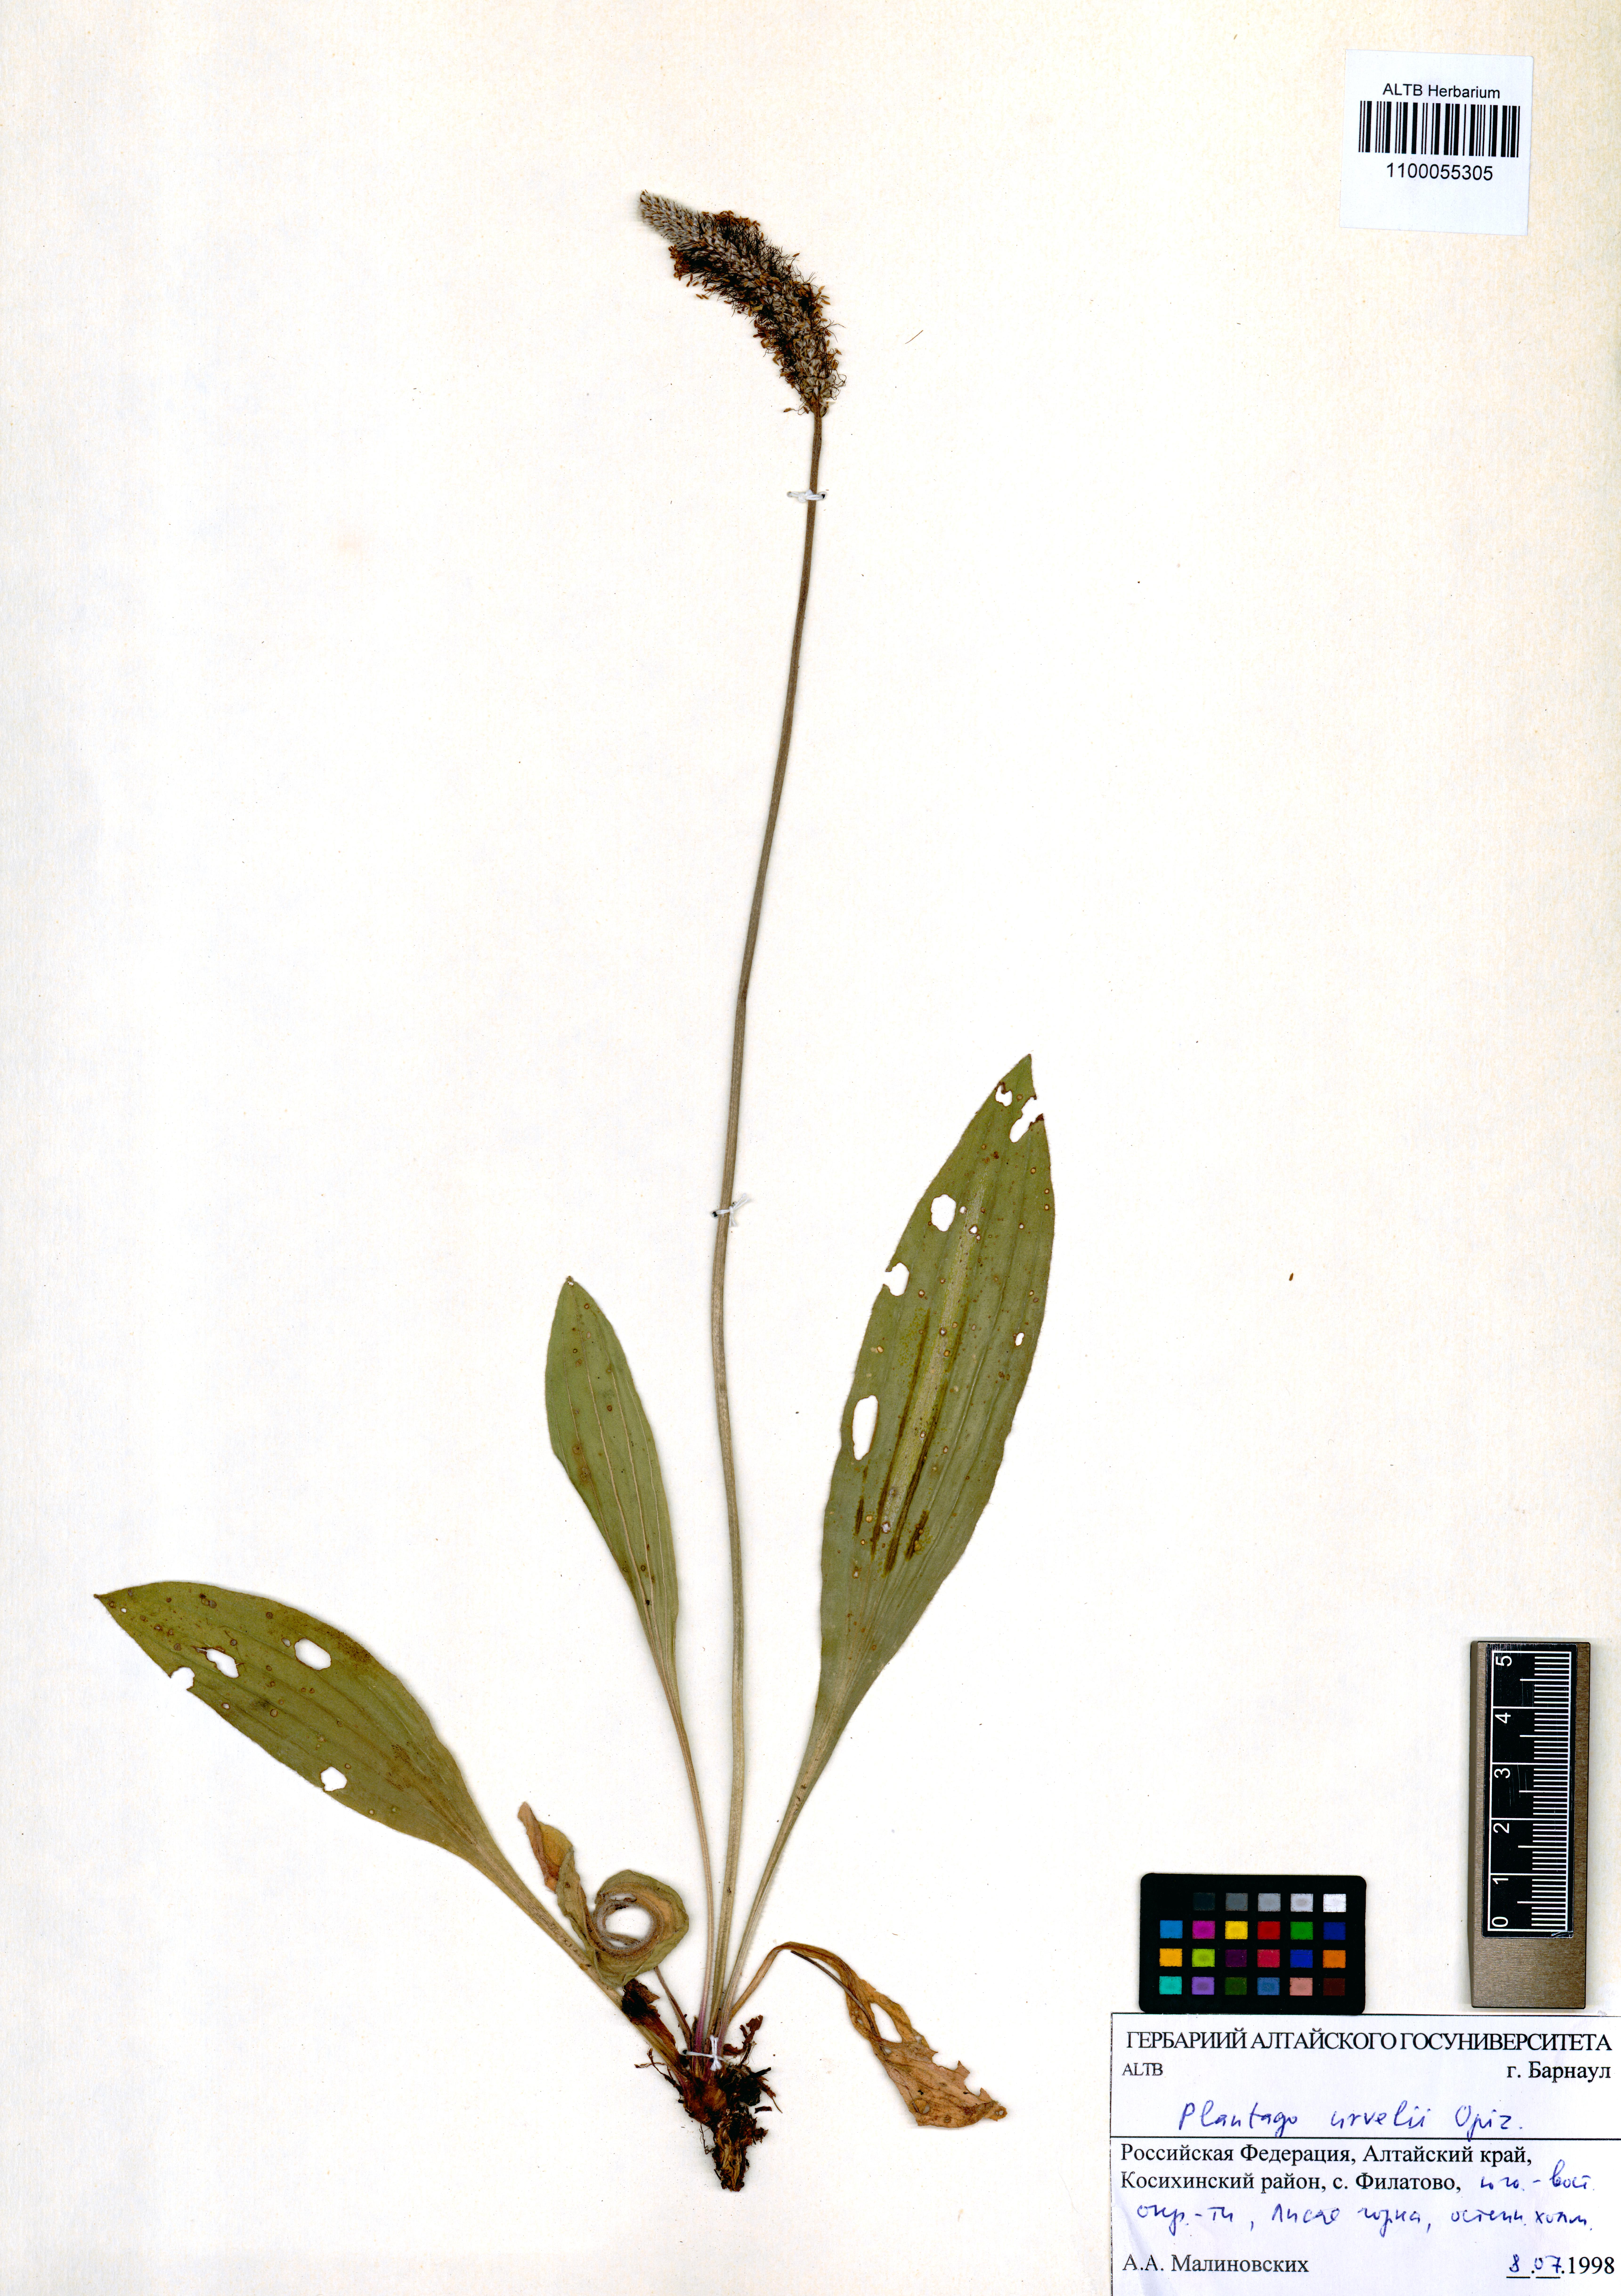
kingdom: Plantae
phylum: Tracheophyta
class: Magnoliopsida
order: Lamiales
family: Plantaginaceae
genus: Plantago
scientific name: Plantago urvillei
